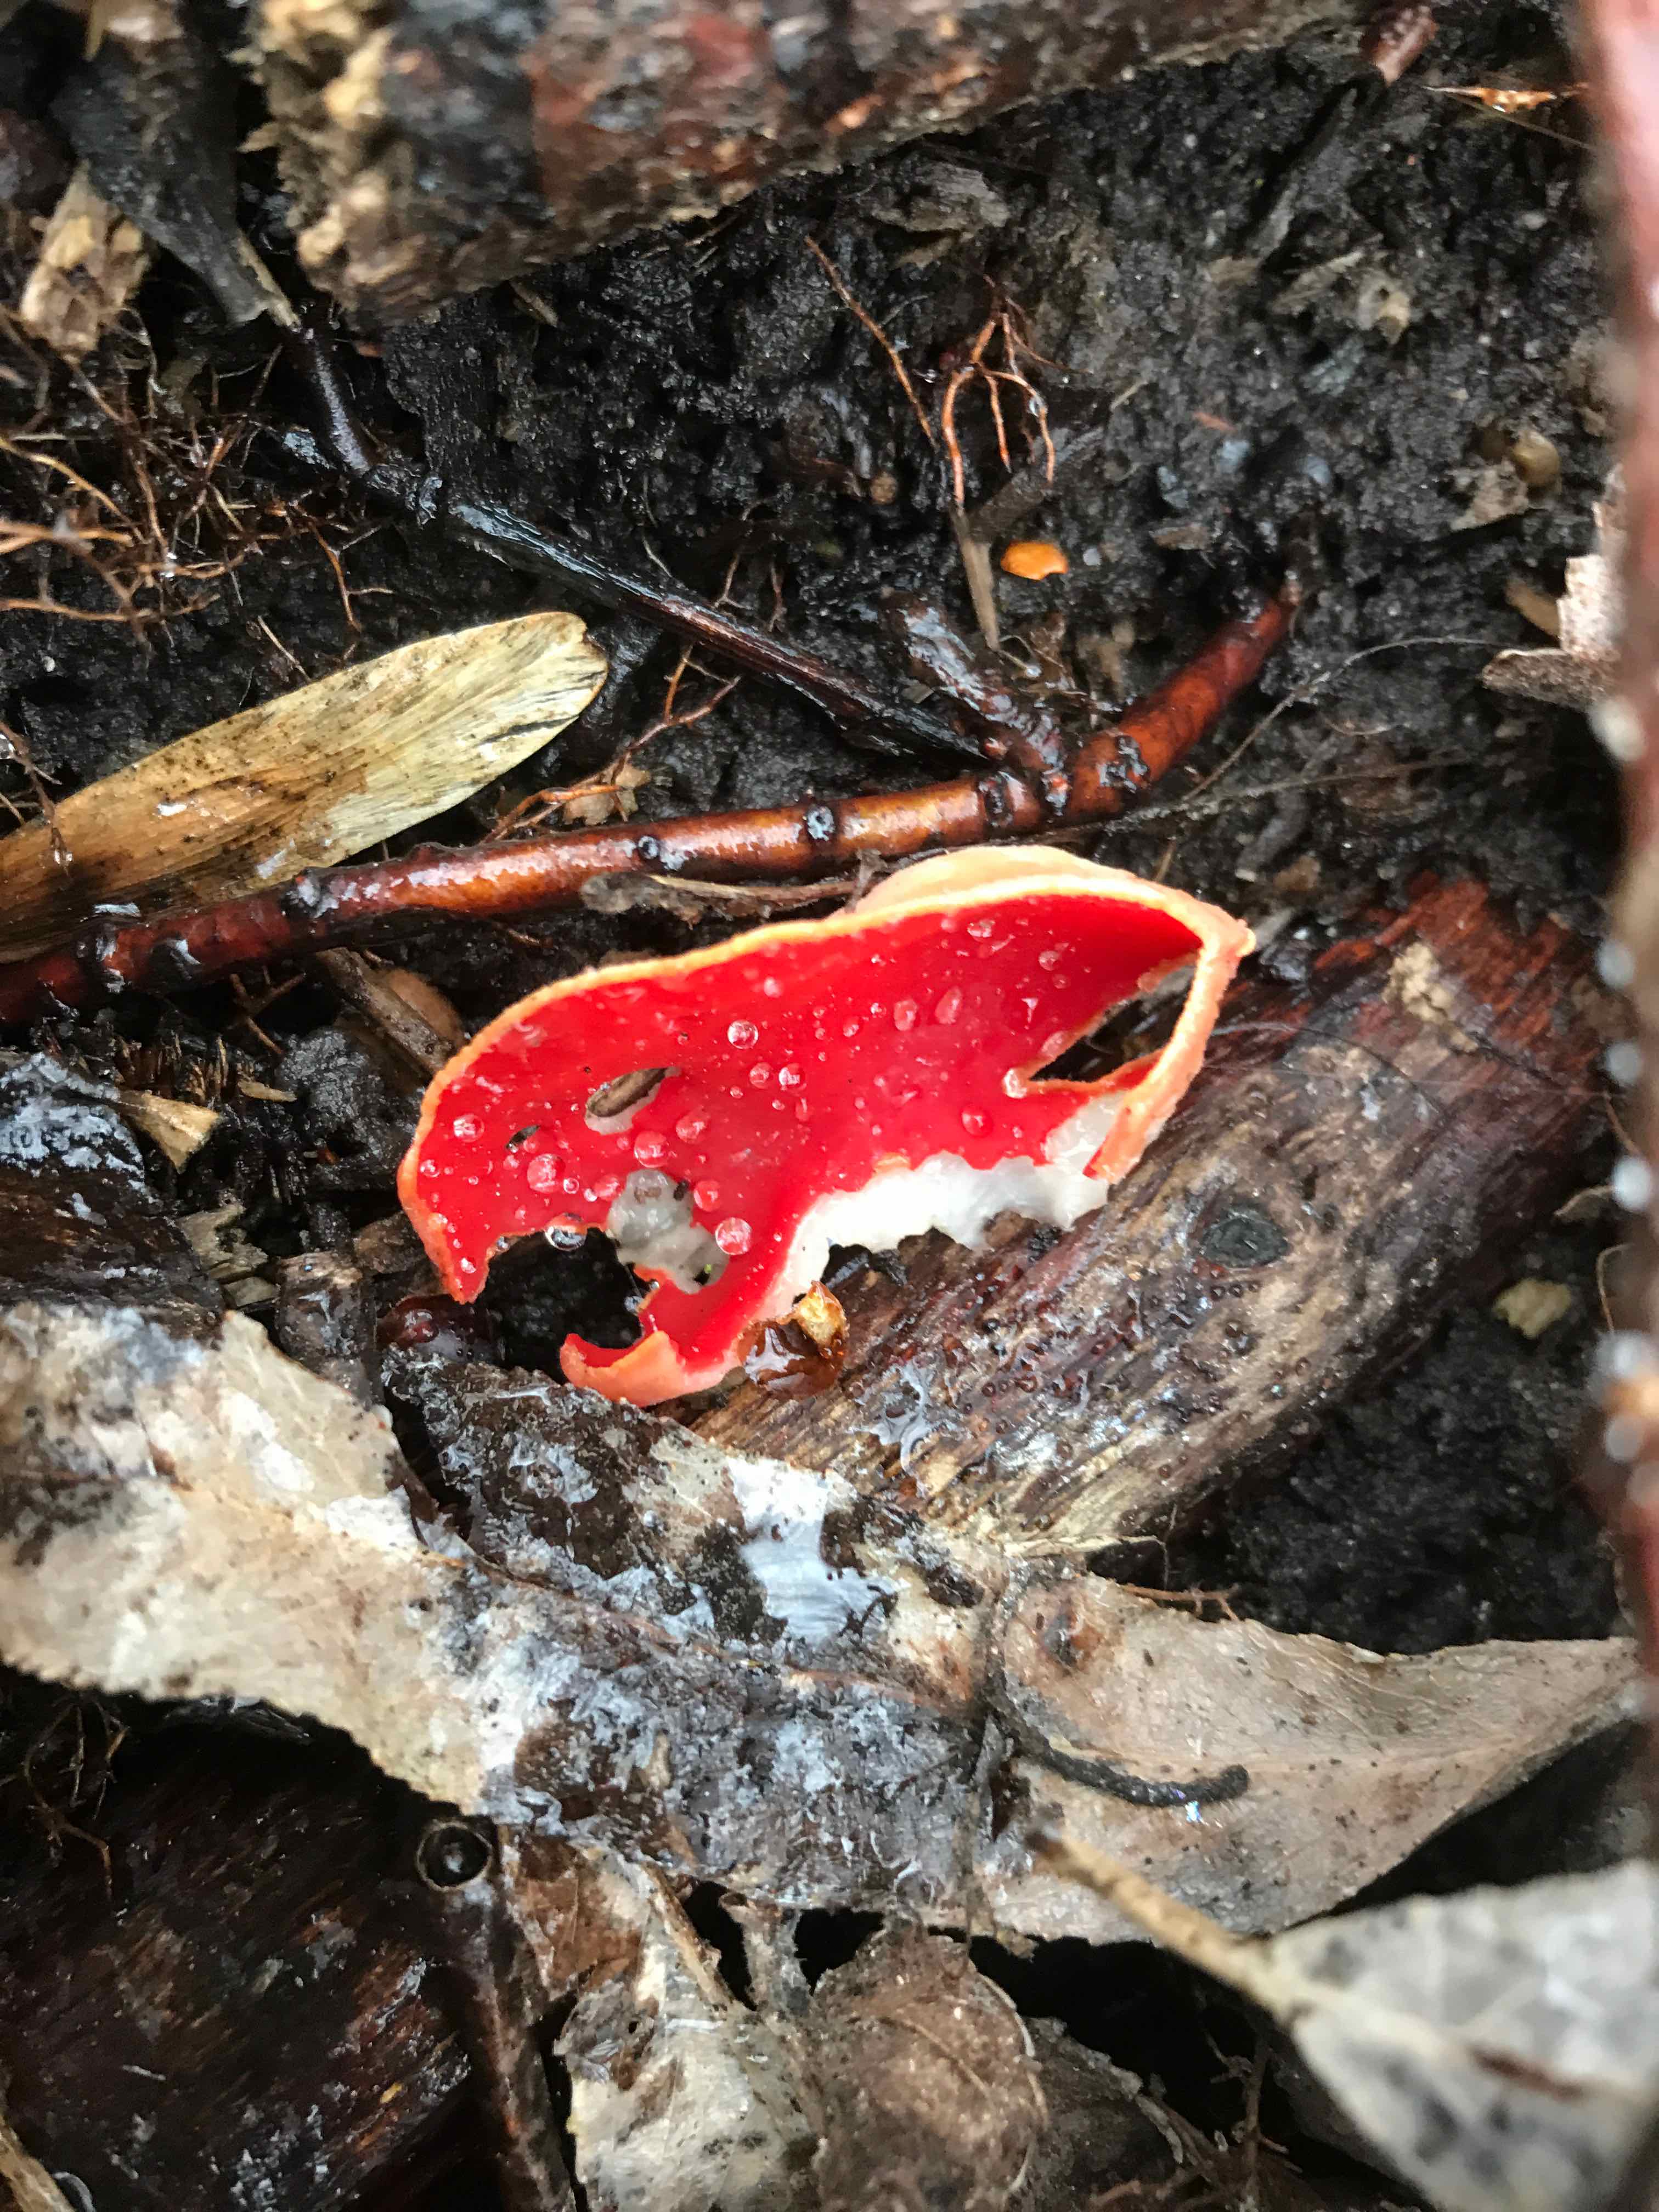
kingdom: Fungi
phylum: Ascomycota
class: Pezizomycetes
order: Pezizales
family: Sarcoscyphaceae
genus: Sarcoscypha
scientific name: Sarcoscypha austriaca
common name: krølhåret pragtbæger
